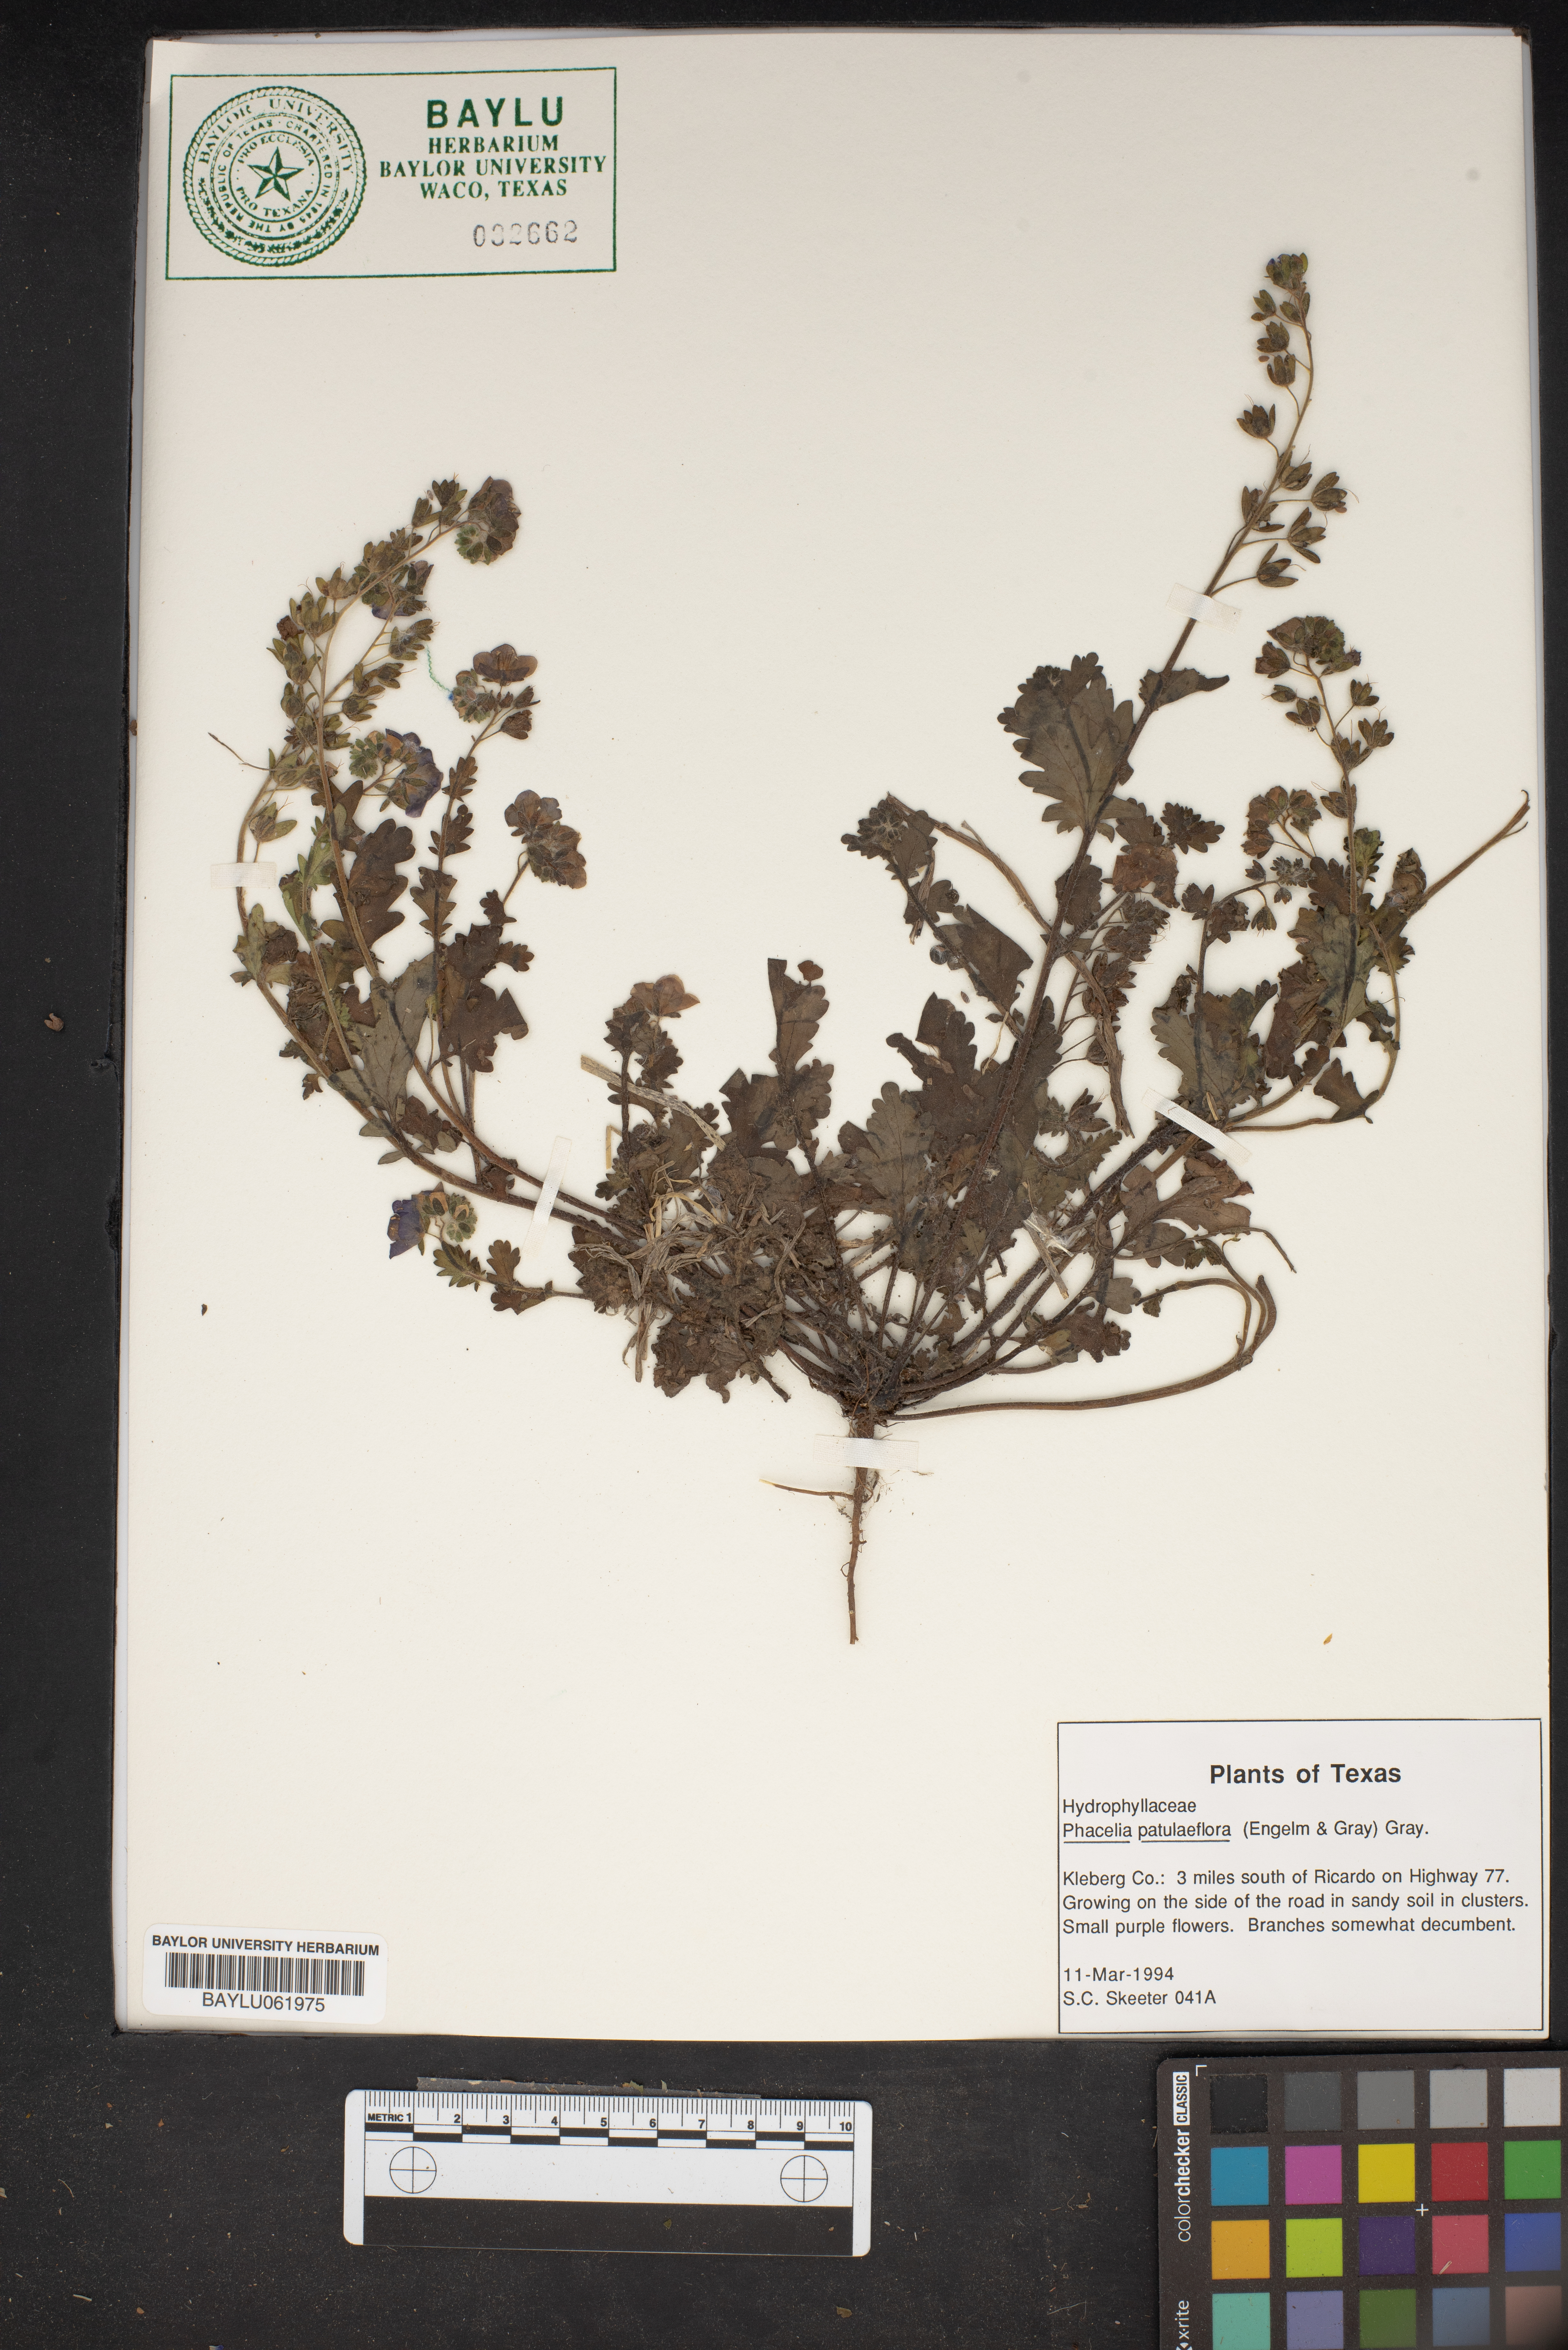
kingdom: Plantae
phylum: Tracheophyta
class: Magnoliopsida
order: Boraginales
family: Hydrophyllaceae
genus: Phacelia
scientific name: Phacelia patuliflora
